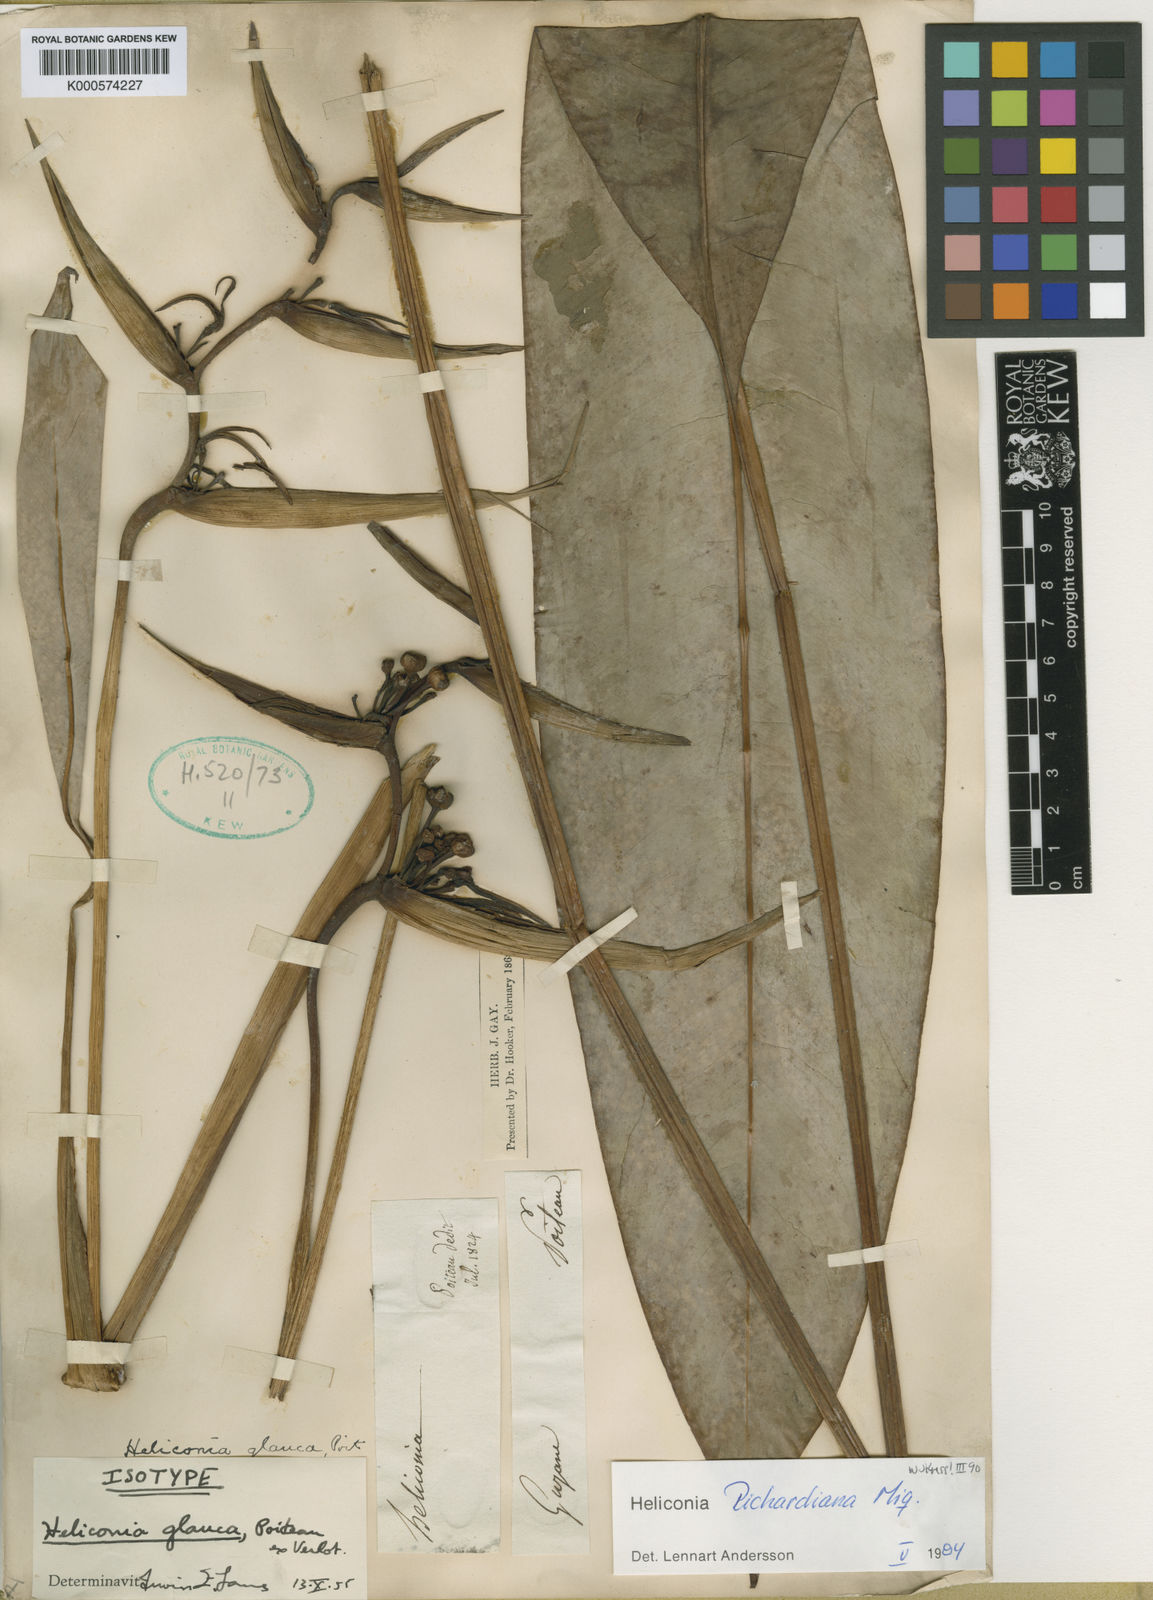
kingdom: Plantae
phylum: Tracheophyta
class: Liliopsida
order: Zingiberales
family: Heliconiaceae
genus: Heliconia
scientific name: Heliconia
